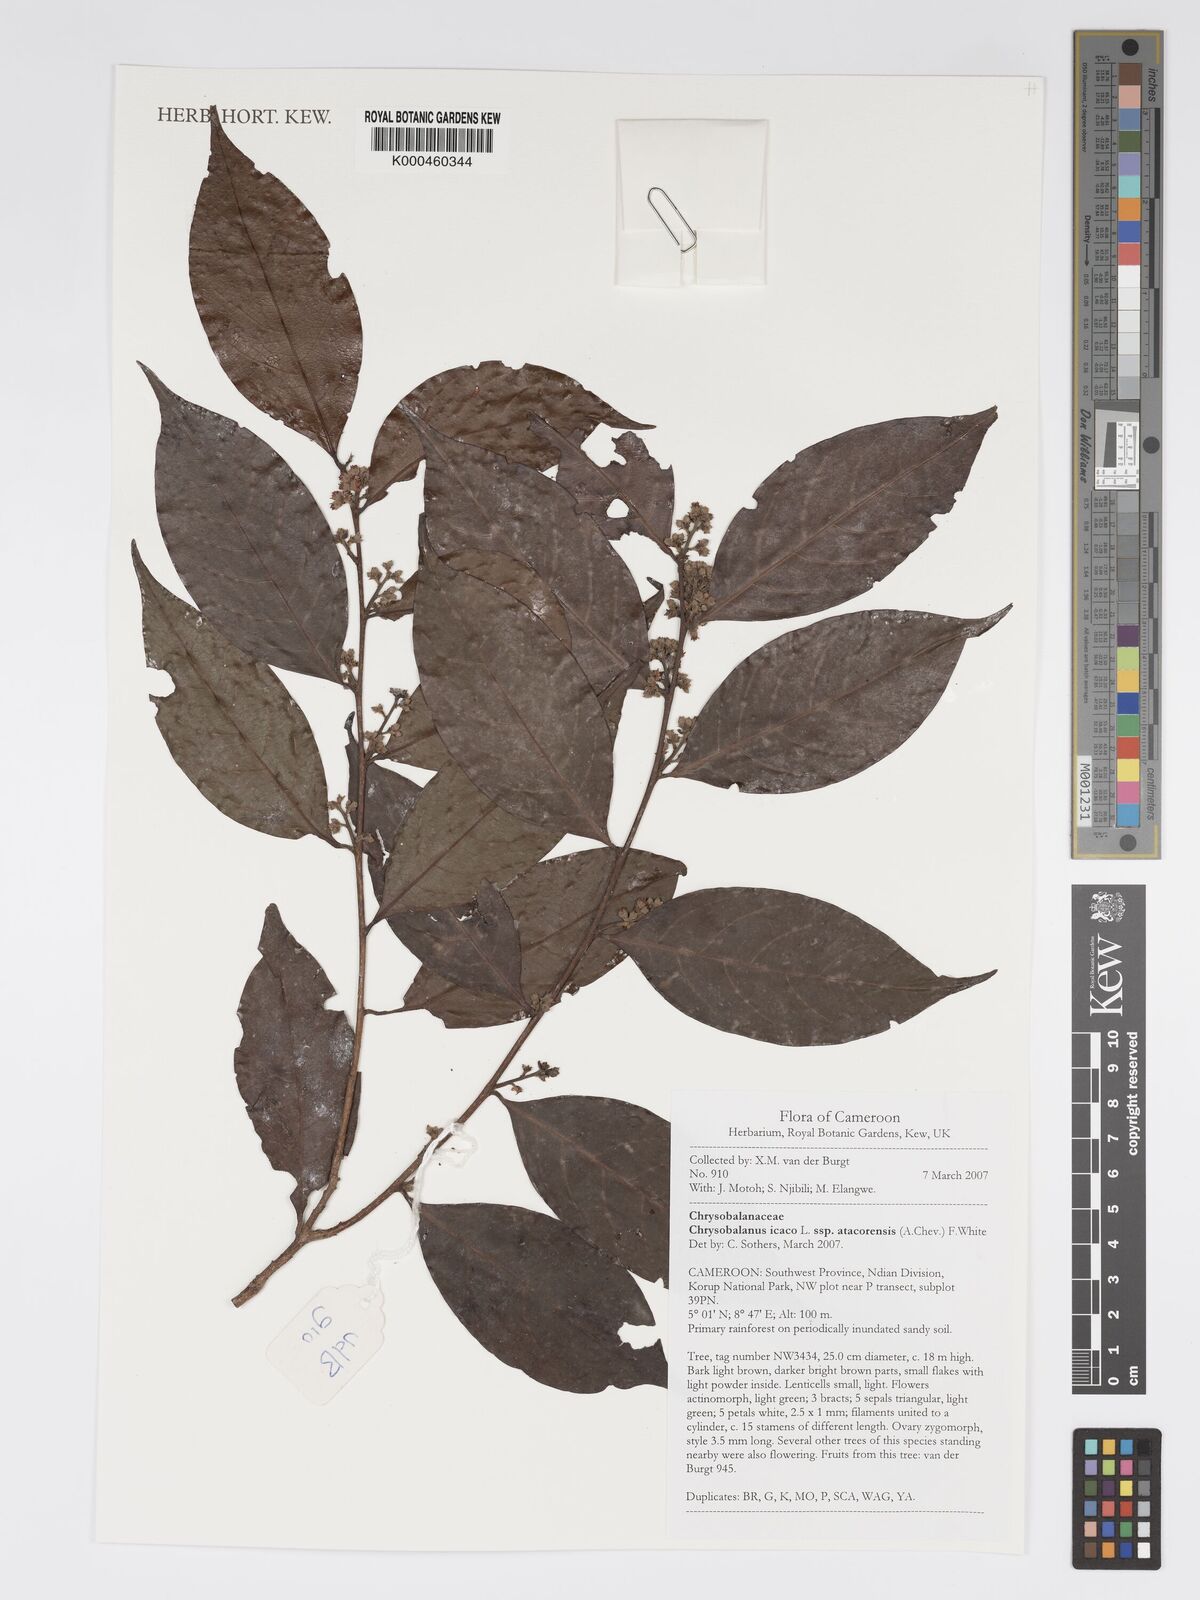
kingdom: Plantae
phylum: Tracheophyta
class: Magnoliopsida
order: Malpighiales
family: Chrysobalanaceae
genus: Chrysobalanus
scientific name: Chrysobalanus icaco
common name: Coco plum
